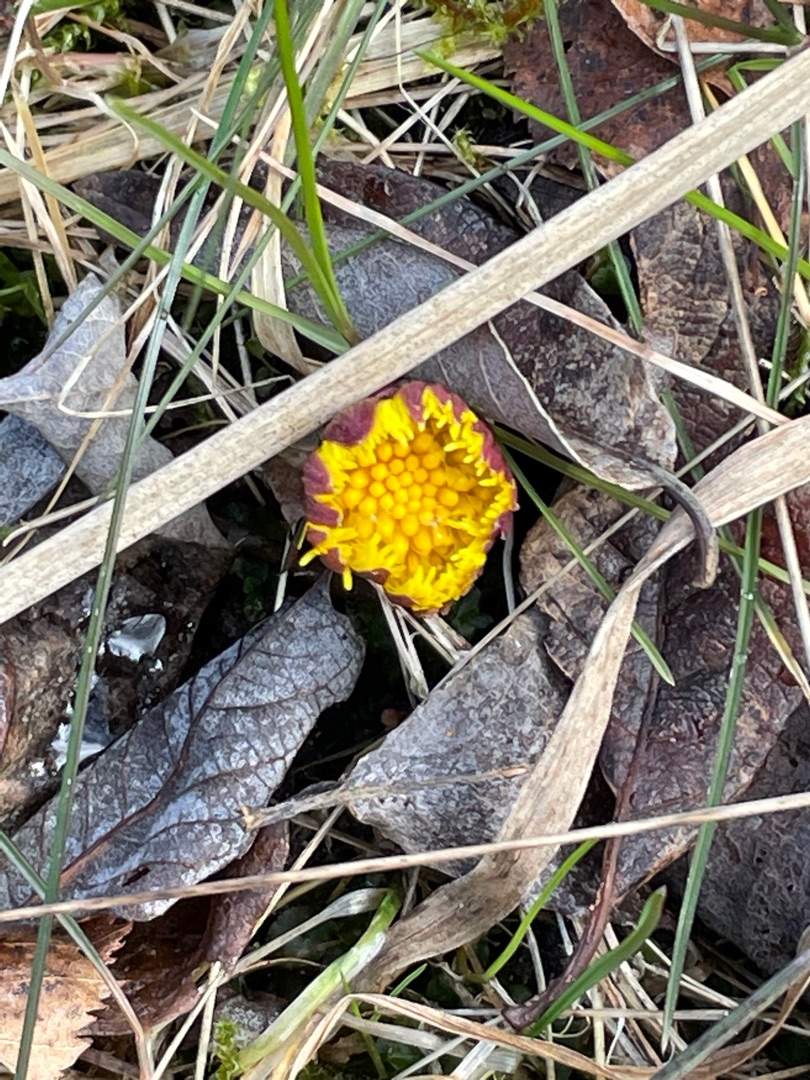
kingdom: Plantae
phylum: Tracheophyta
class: Magnoliopsida
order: Asterales
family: Asteraceae
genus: Tussilago
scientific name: Tussilago farfara
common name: Følfod
